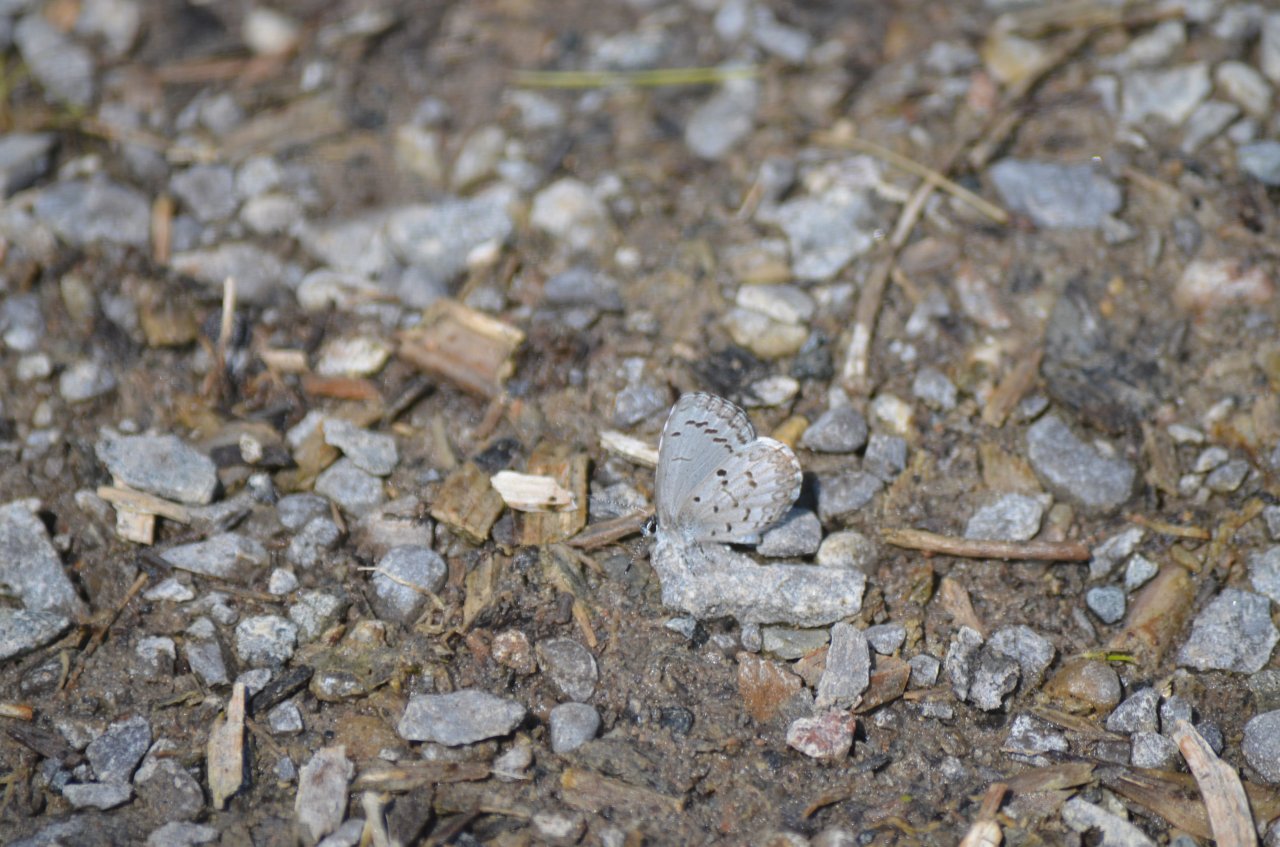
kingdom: Animalia
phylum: Arthropoda
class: Insecta
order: Lepidoptera
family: Lycaenidae
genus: Celastrina
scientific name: Celastrina
